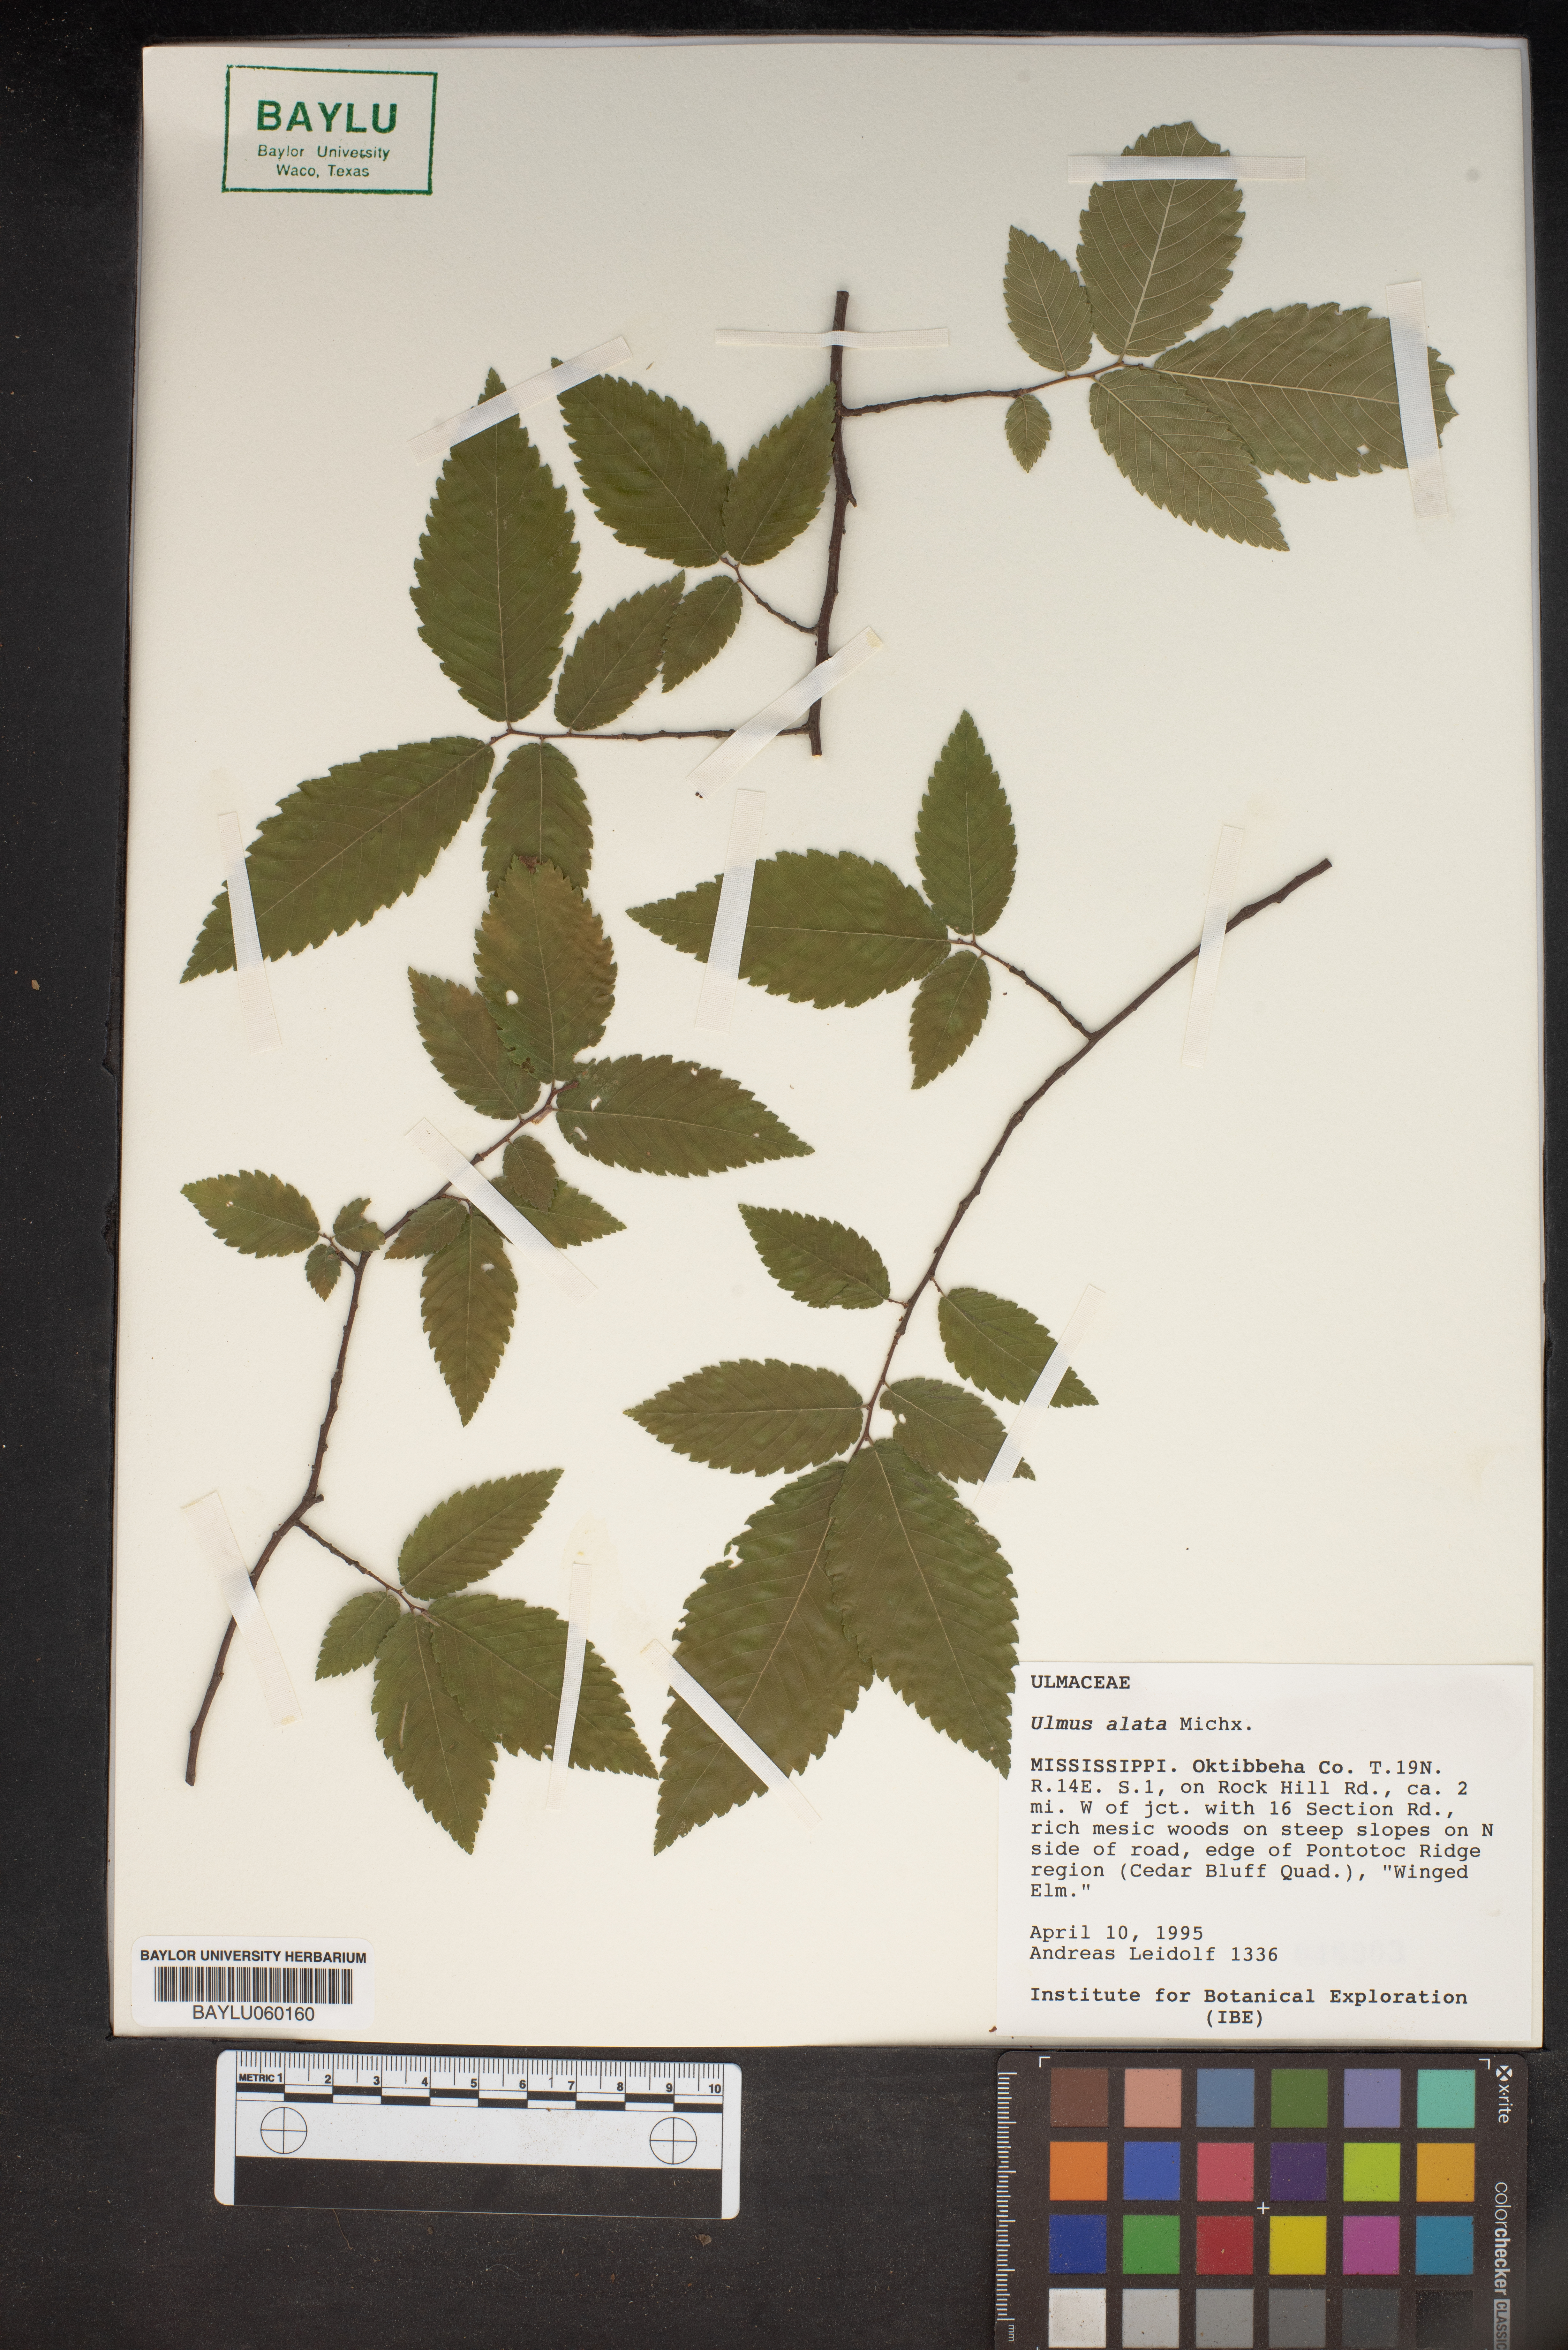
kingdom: Plantae
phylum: Tracheophyta
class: Magnoliopsida
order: Rosales
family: Ulmaceae
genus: Ulmus
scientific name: Ulmus alata
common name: Winged elm
